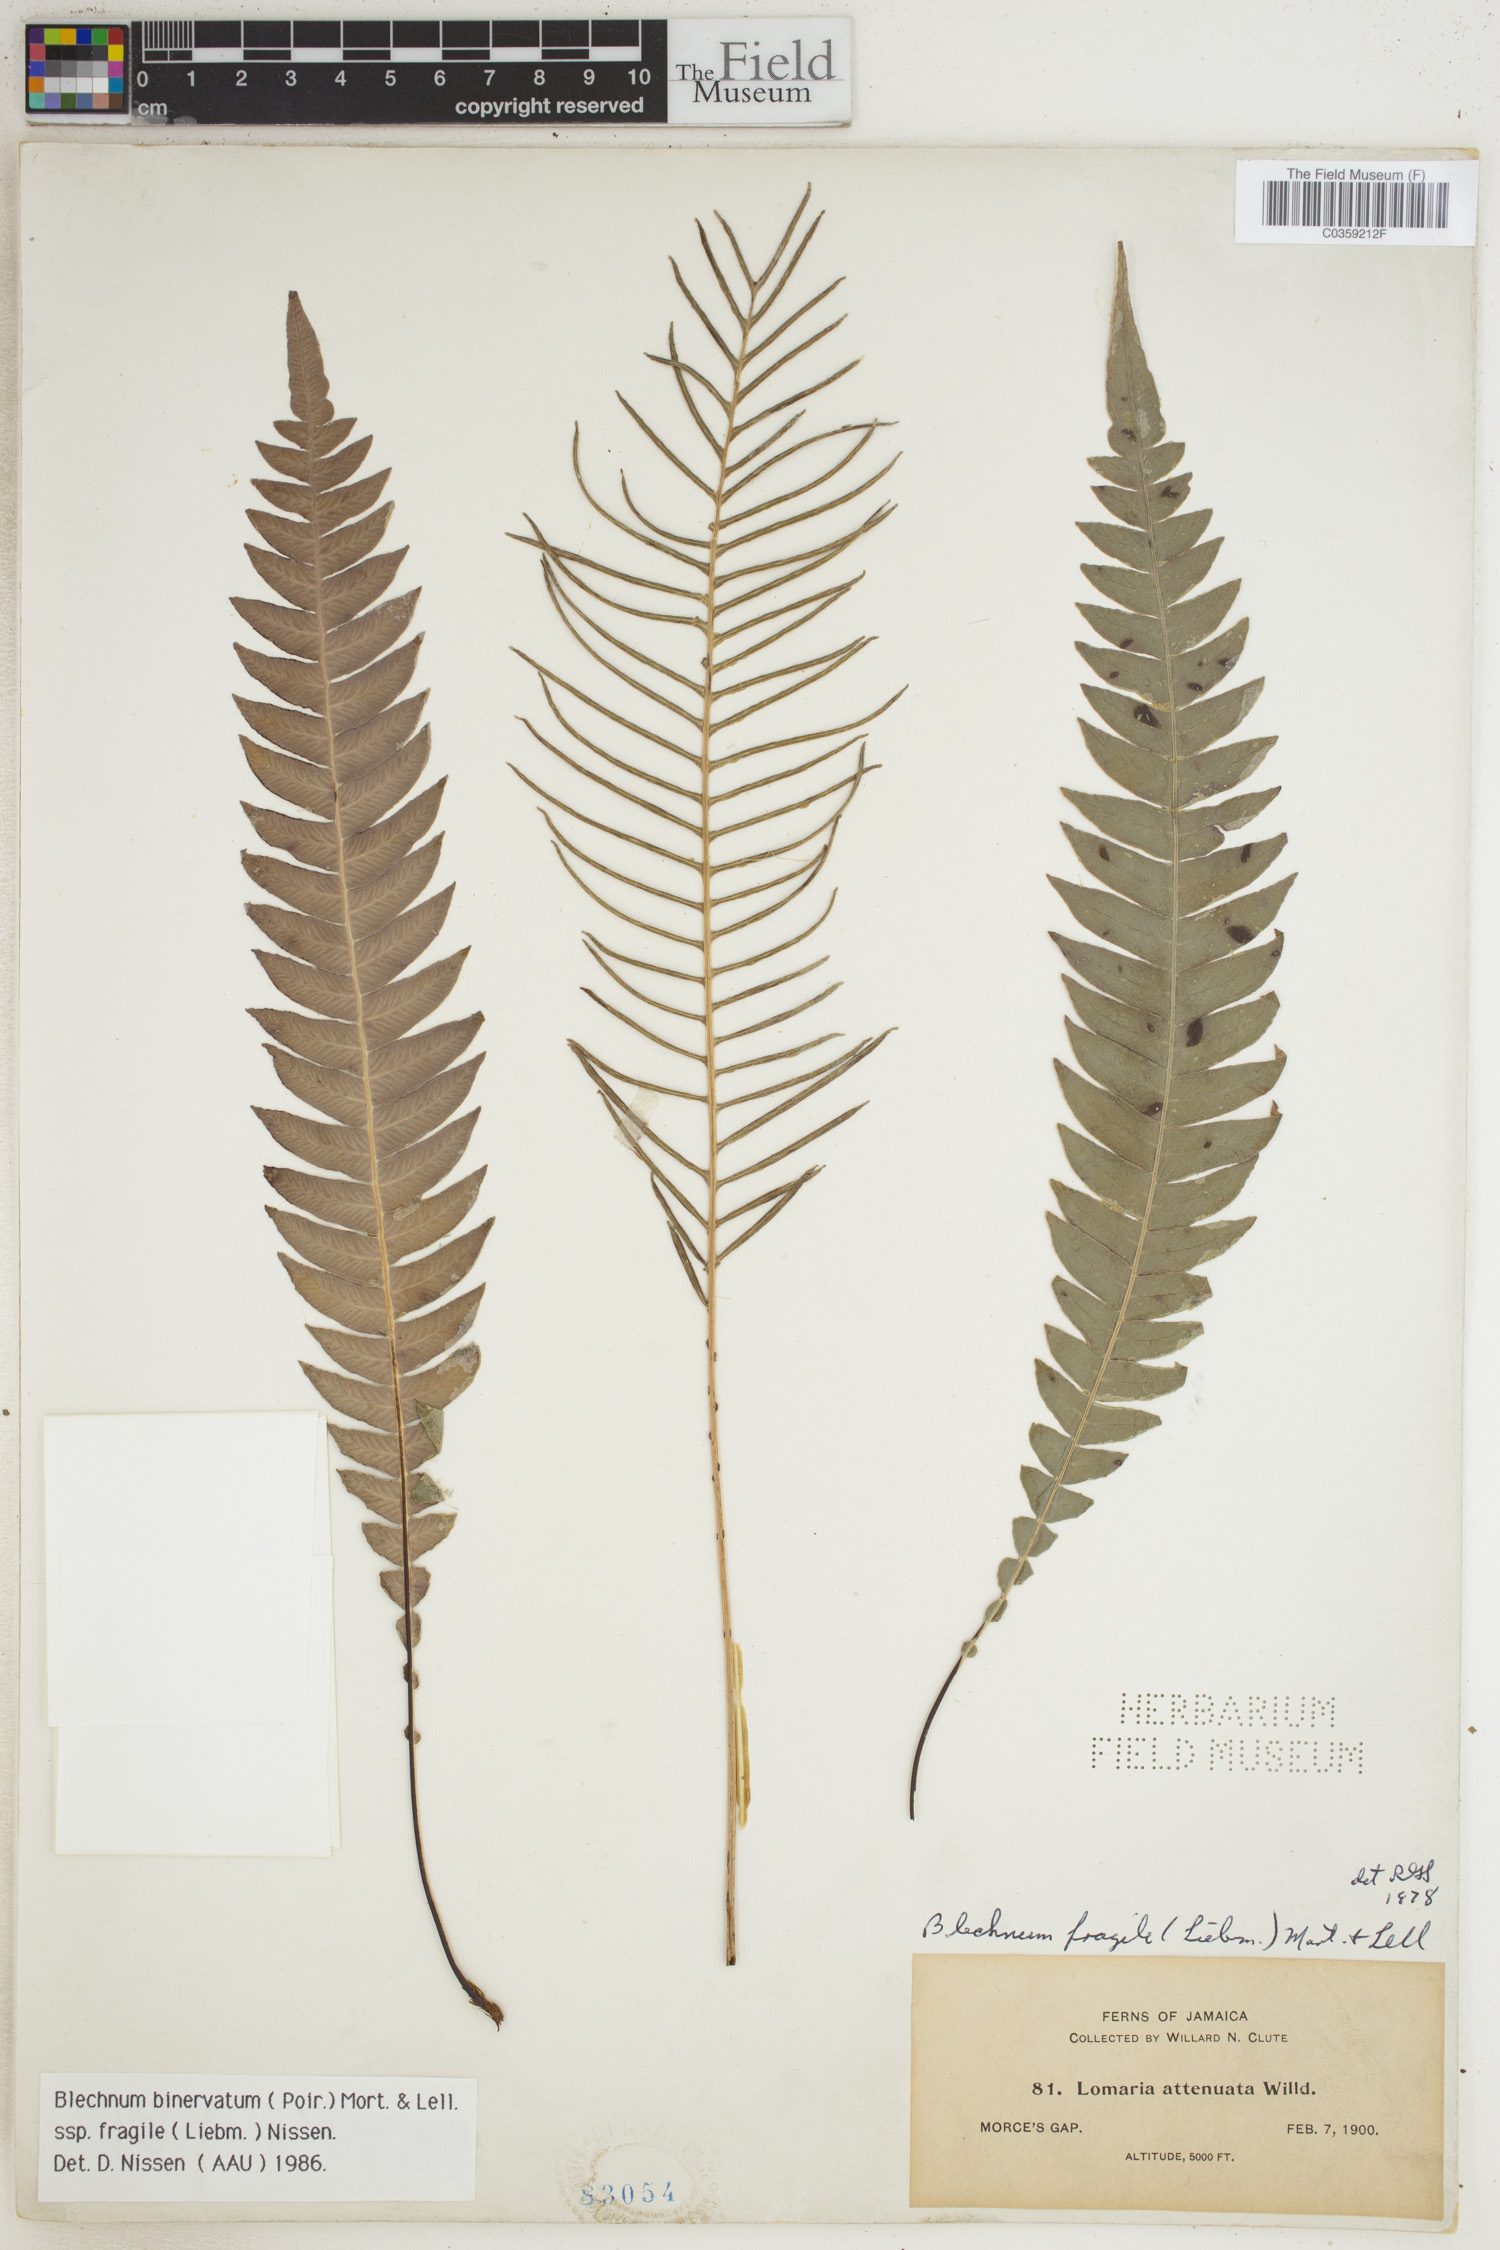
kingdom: Plantae
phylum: Tracheophyta
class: Polypodiopsida
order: Polypodiales
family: Blechnaceae
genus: Lomaridium
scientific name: Lomaridium binervatum
